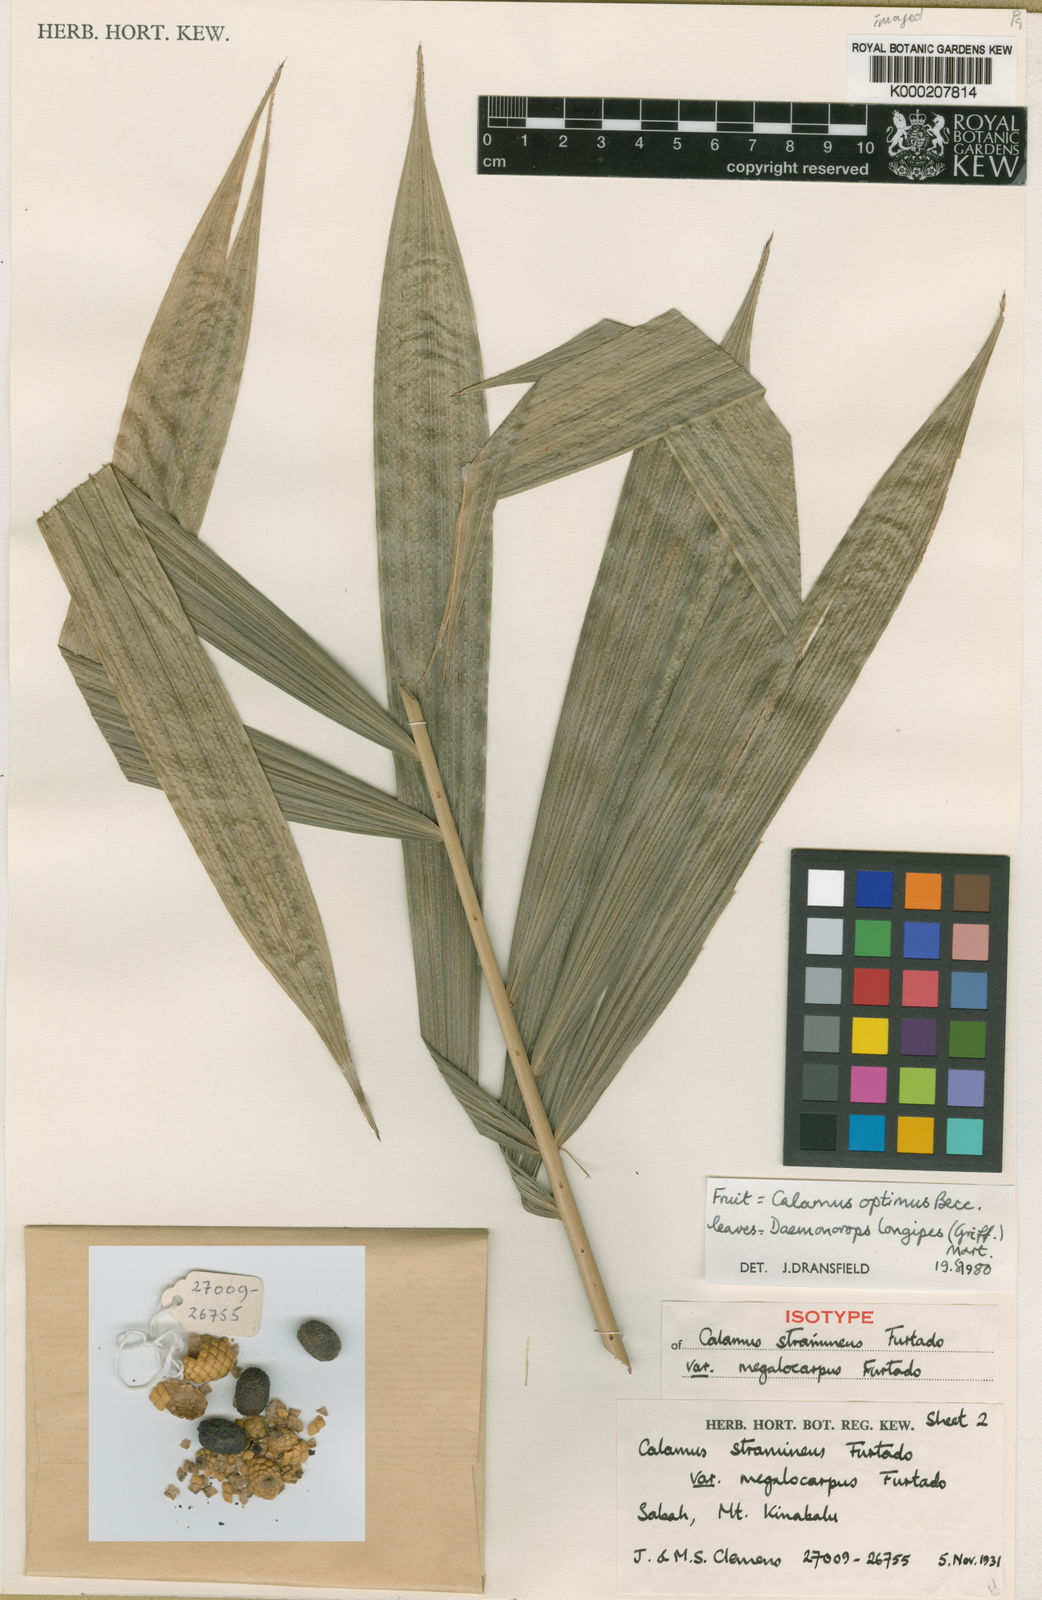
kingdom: Plantae
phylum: Tracheophyta
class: Liliopsida
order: Arecales
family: Arecaceae
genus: Calamus
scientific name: Calamus
